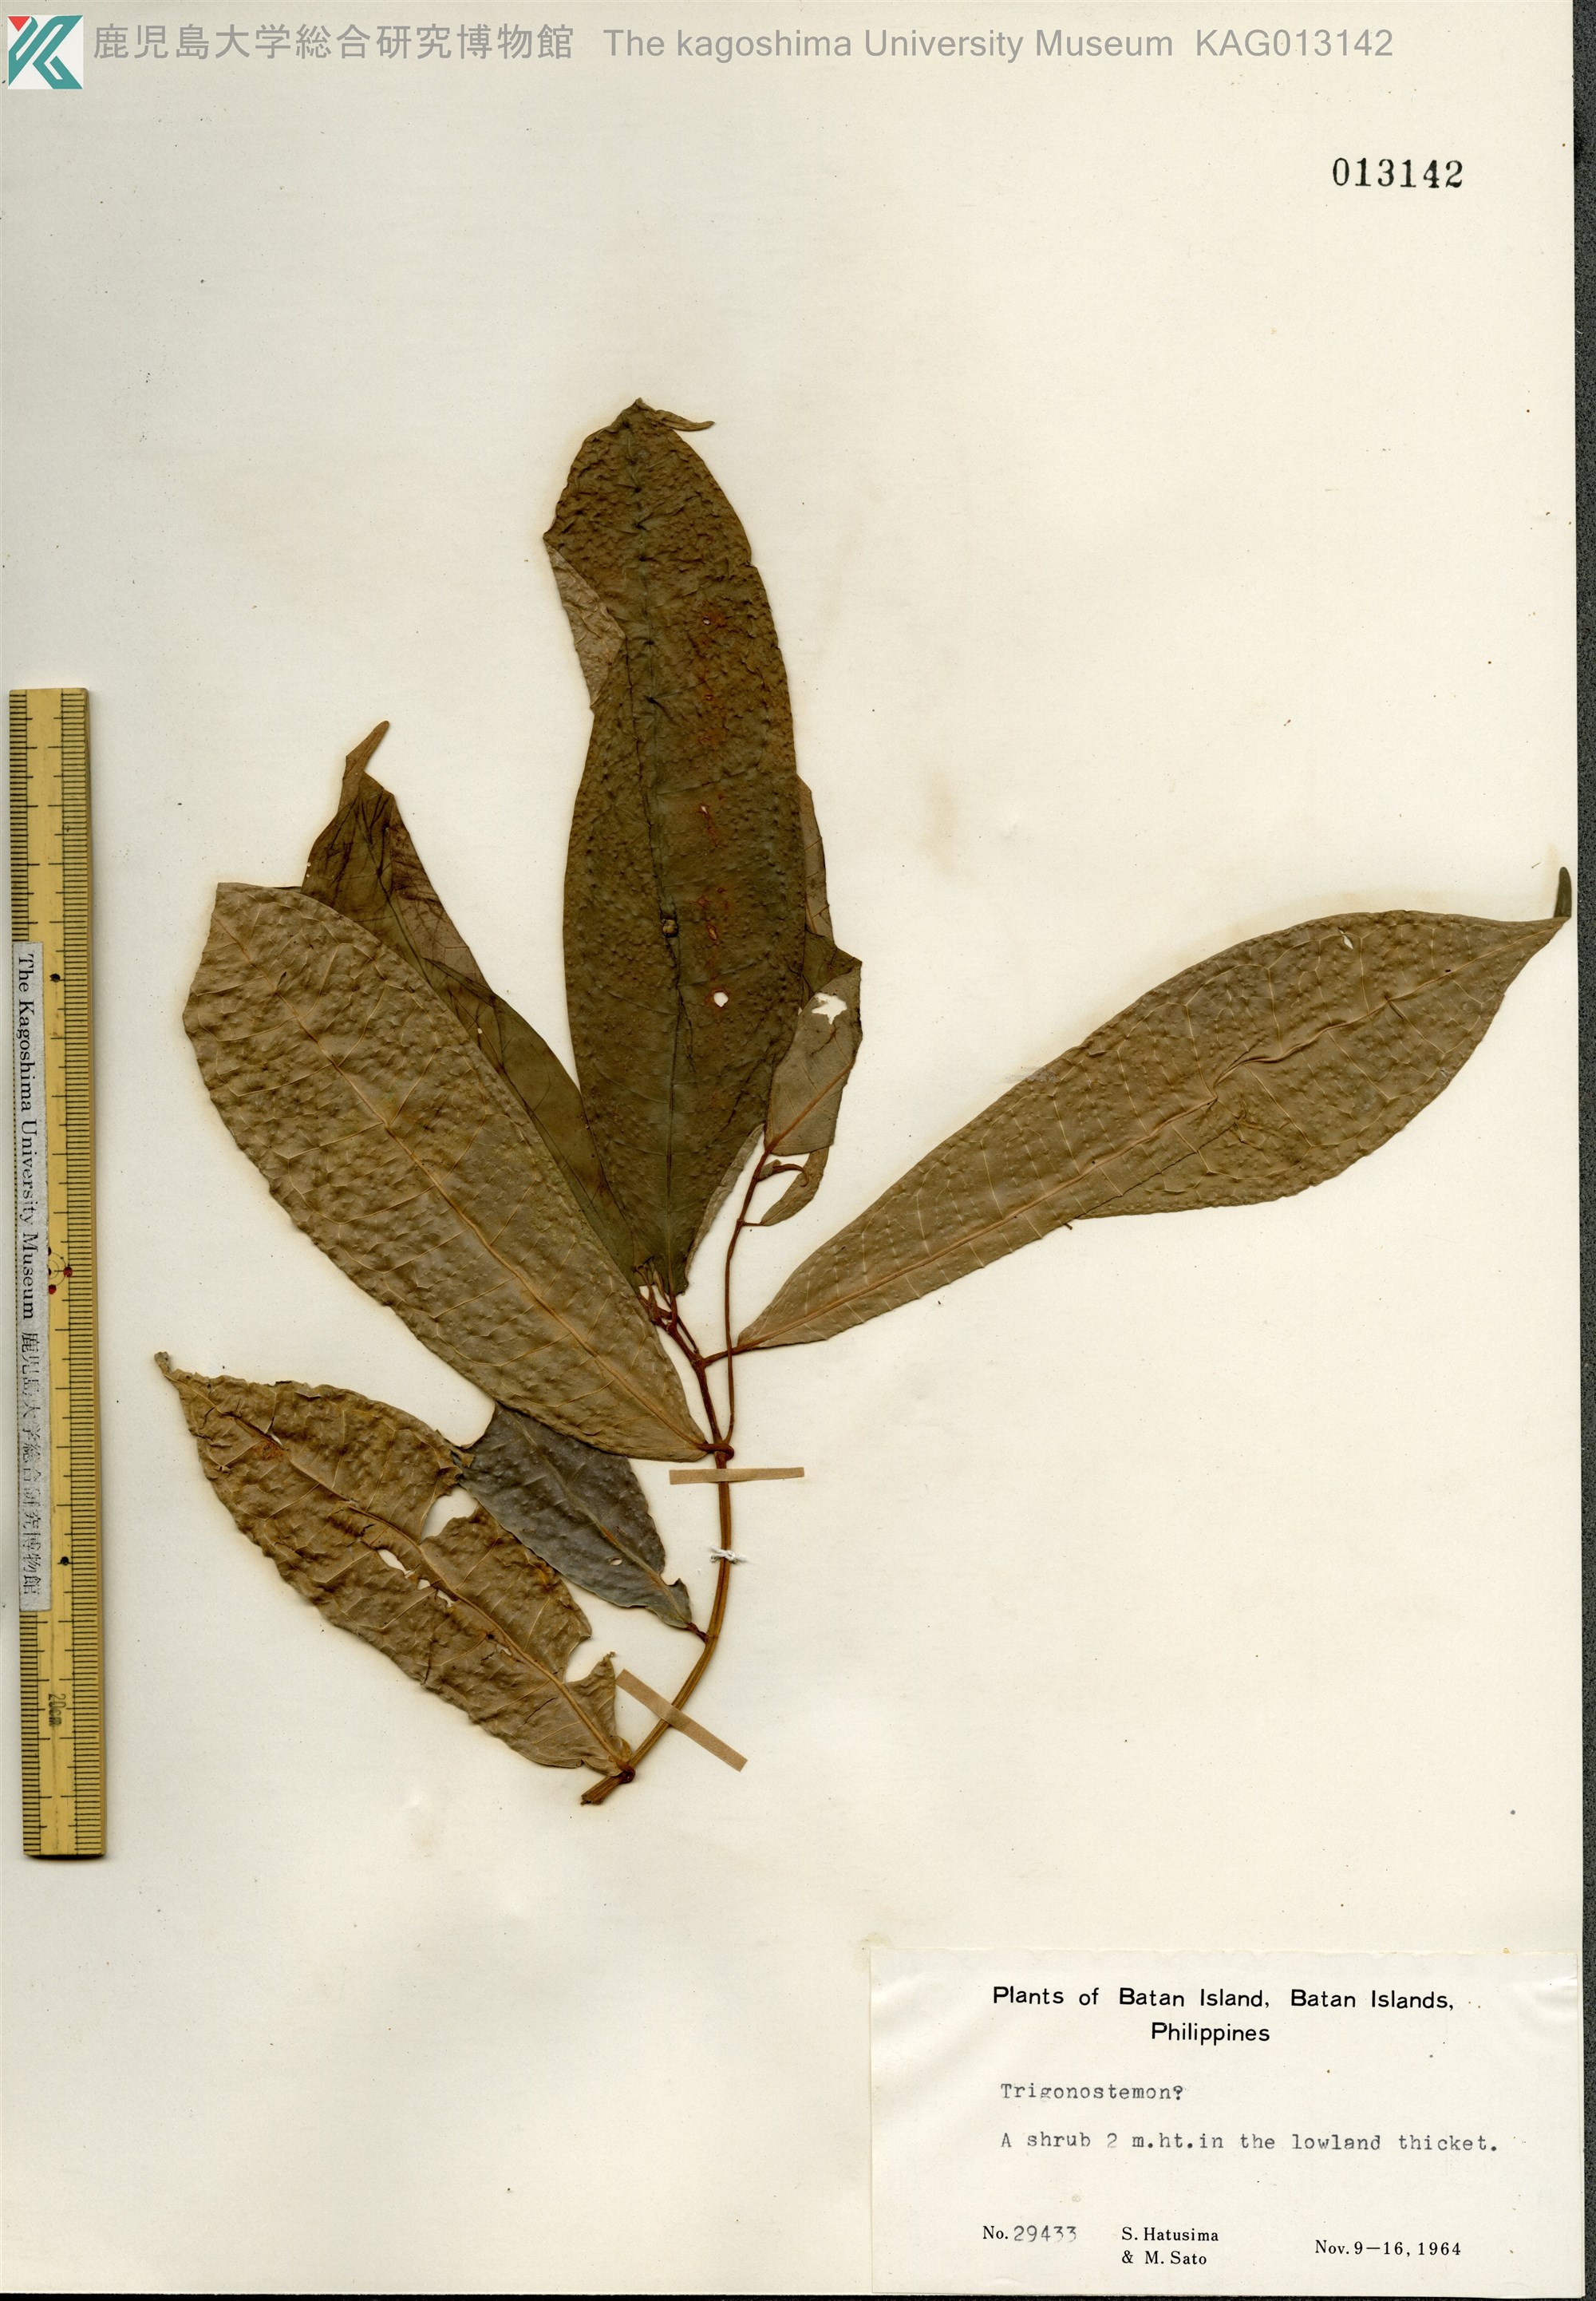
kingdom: Plantae
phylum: Tracheophyta
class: Magnoliopsida
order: Malpighiales
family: Euphorbiaceae
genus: Trigonostemon
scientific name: Trigonostemon
